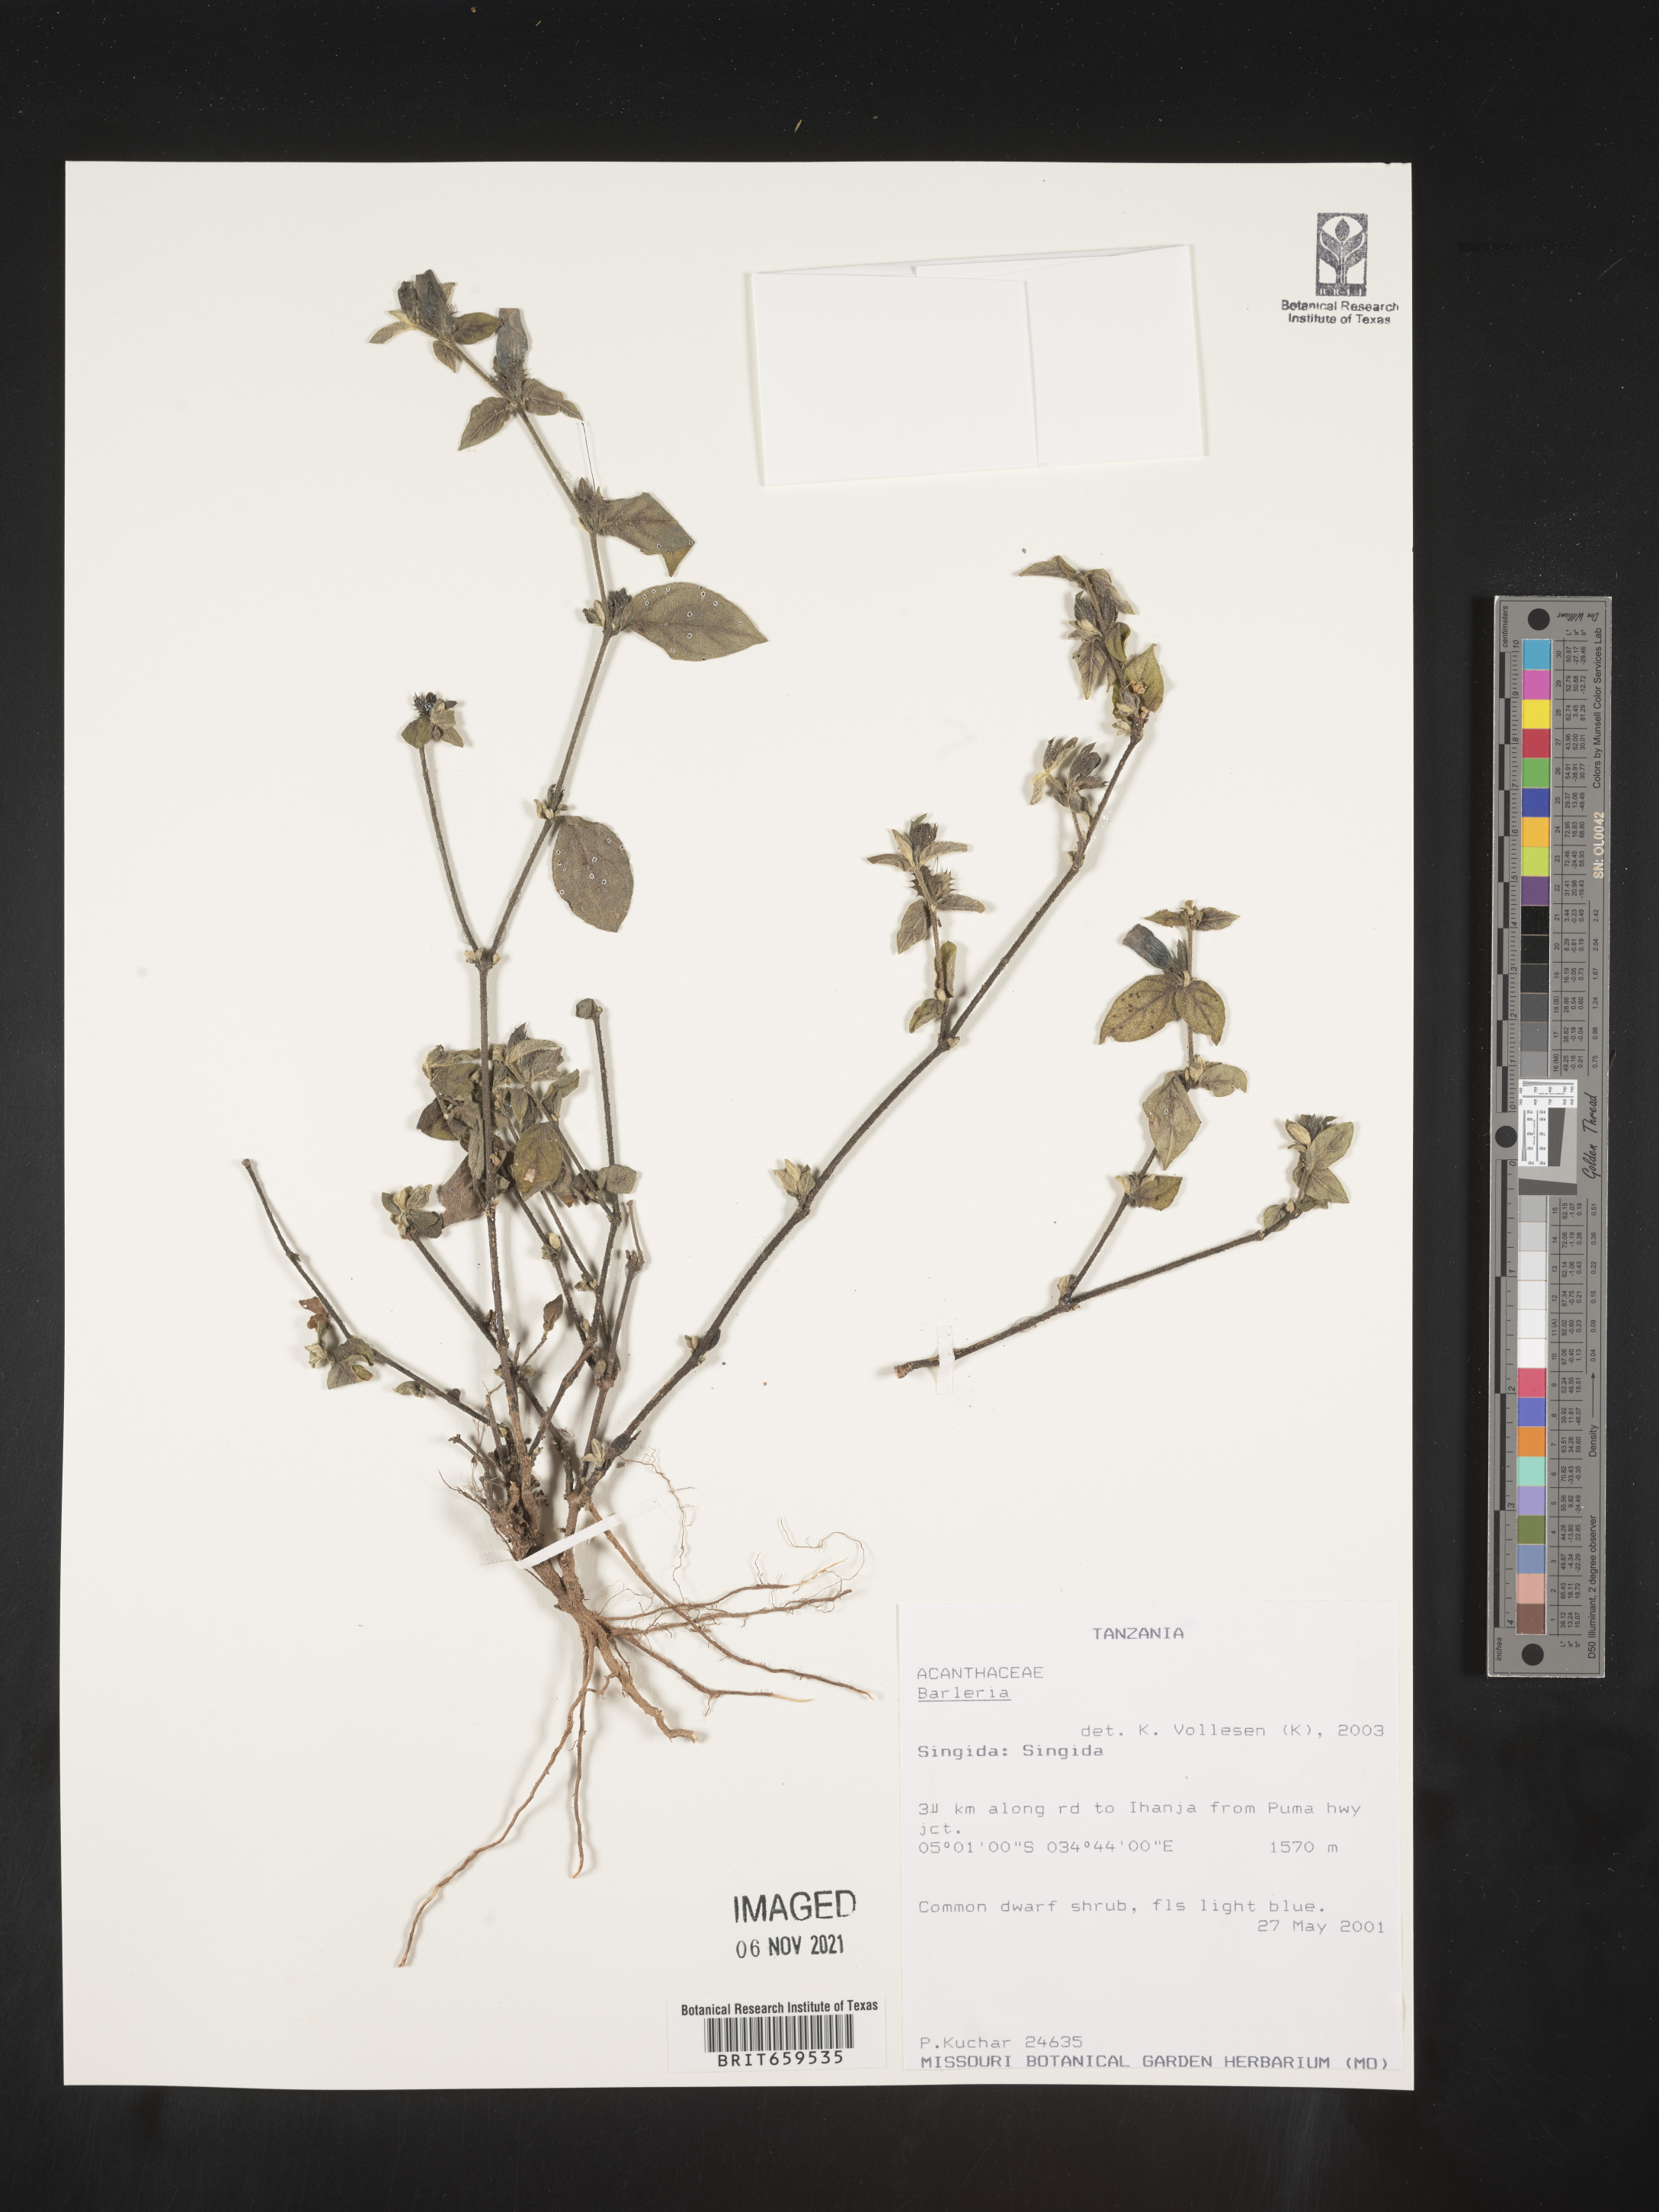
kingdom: Plantae
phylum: Tracheophyta
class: Magnoliopsida
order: Lamiales
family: Acanthaceae
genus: Barleria
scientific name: Barleria
